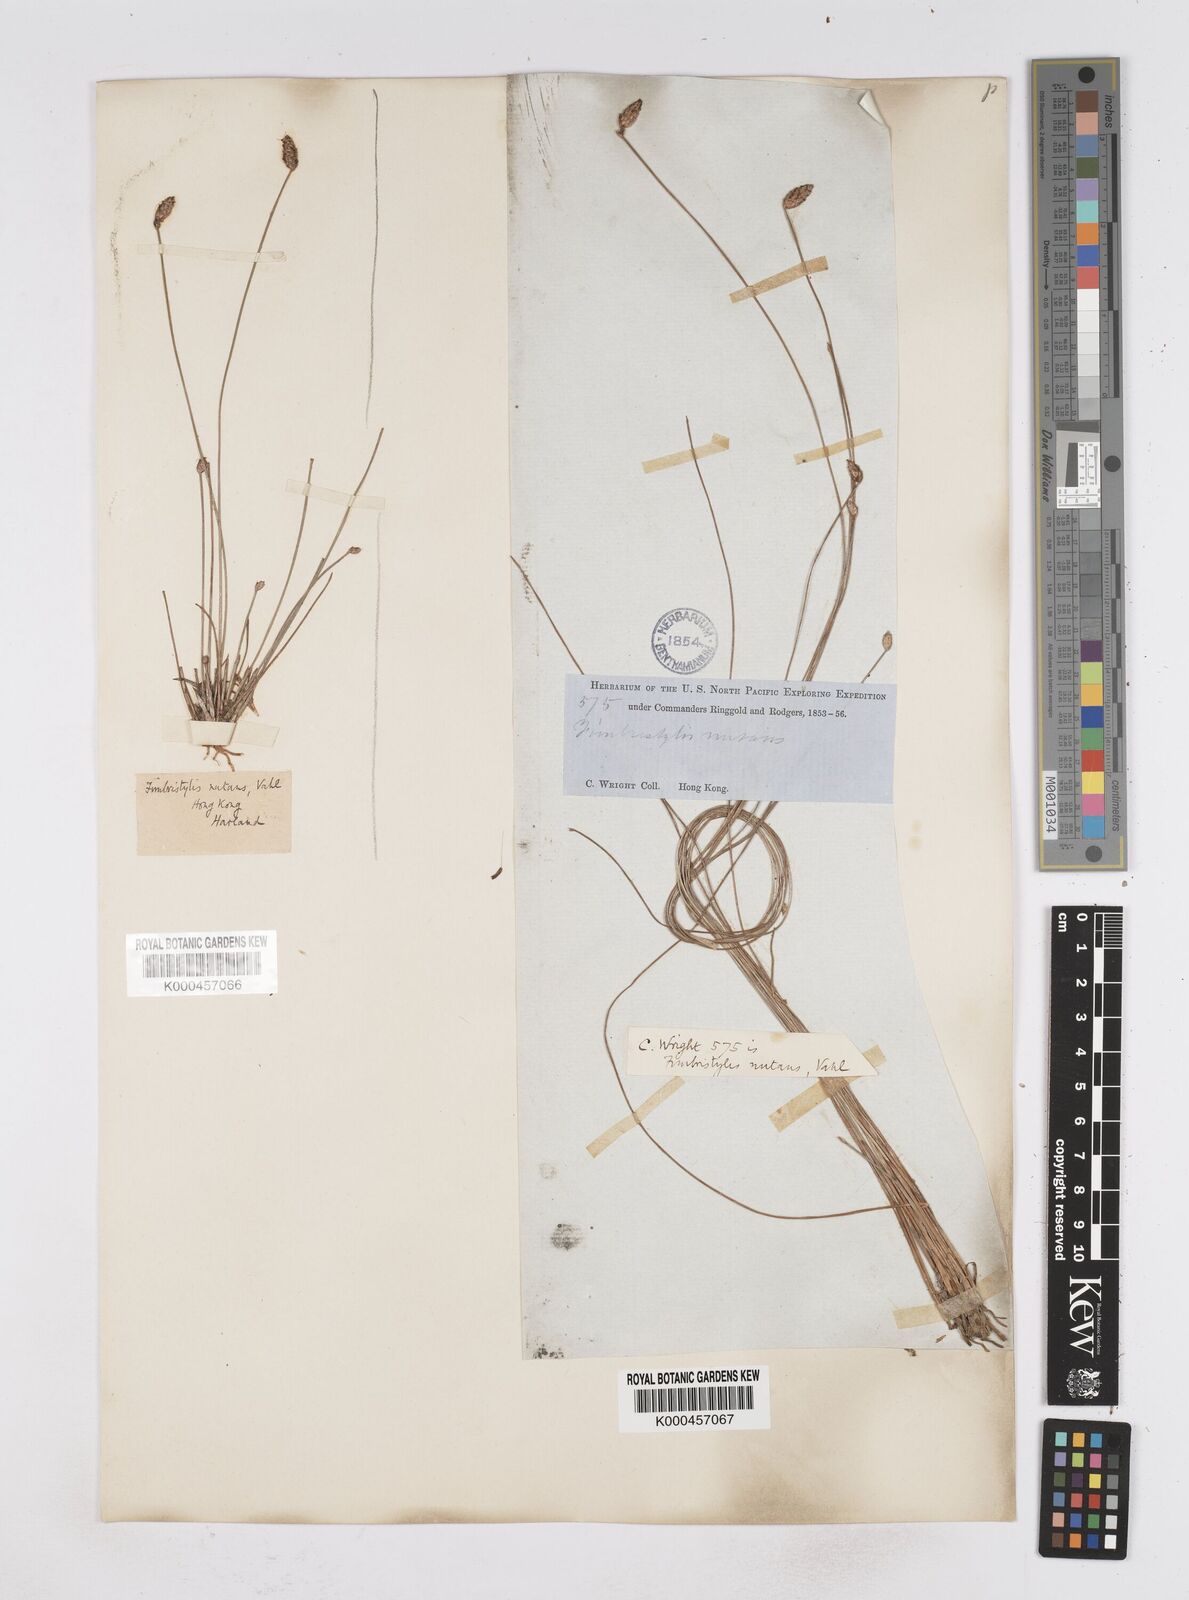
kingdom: Plantae
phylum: Tracheophyta
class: Liliopsida
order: Poales
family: Cyperaceae
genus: Fimbristylis
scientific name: Fimbristylis nutans
